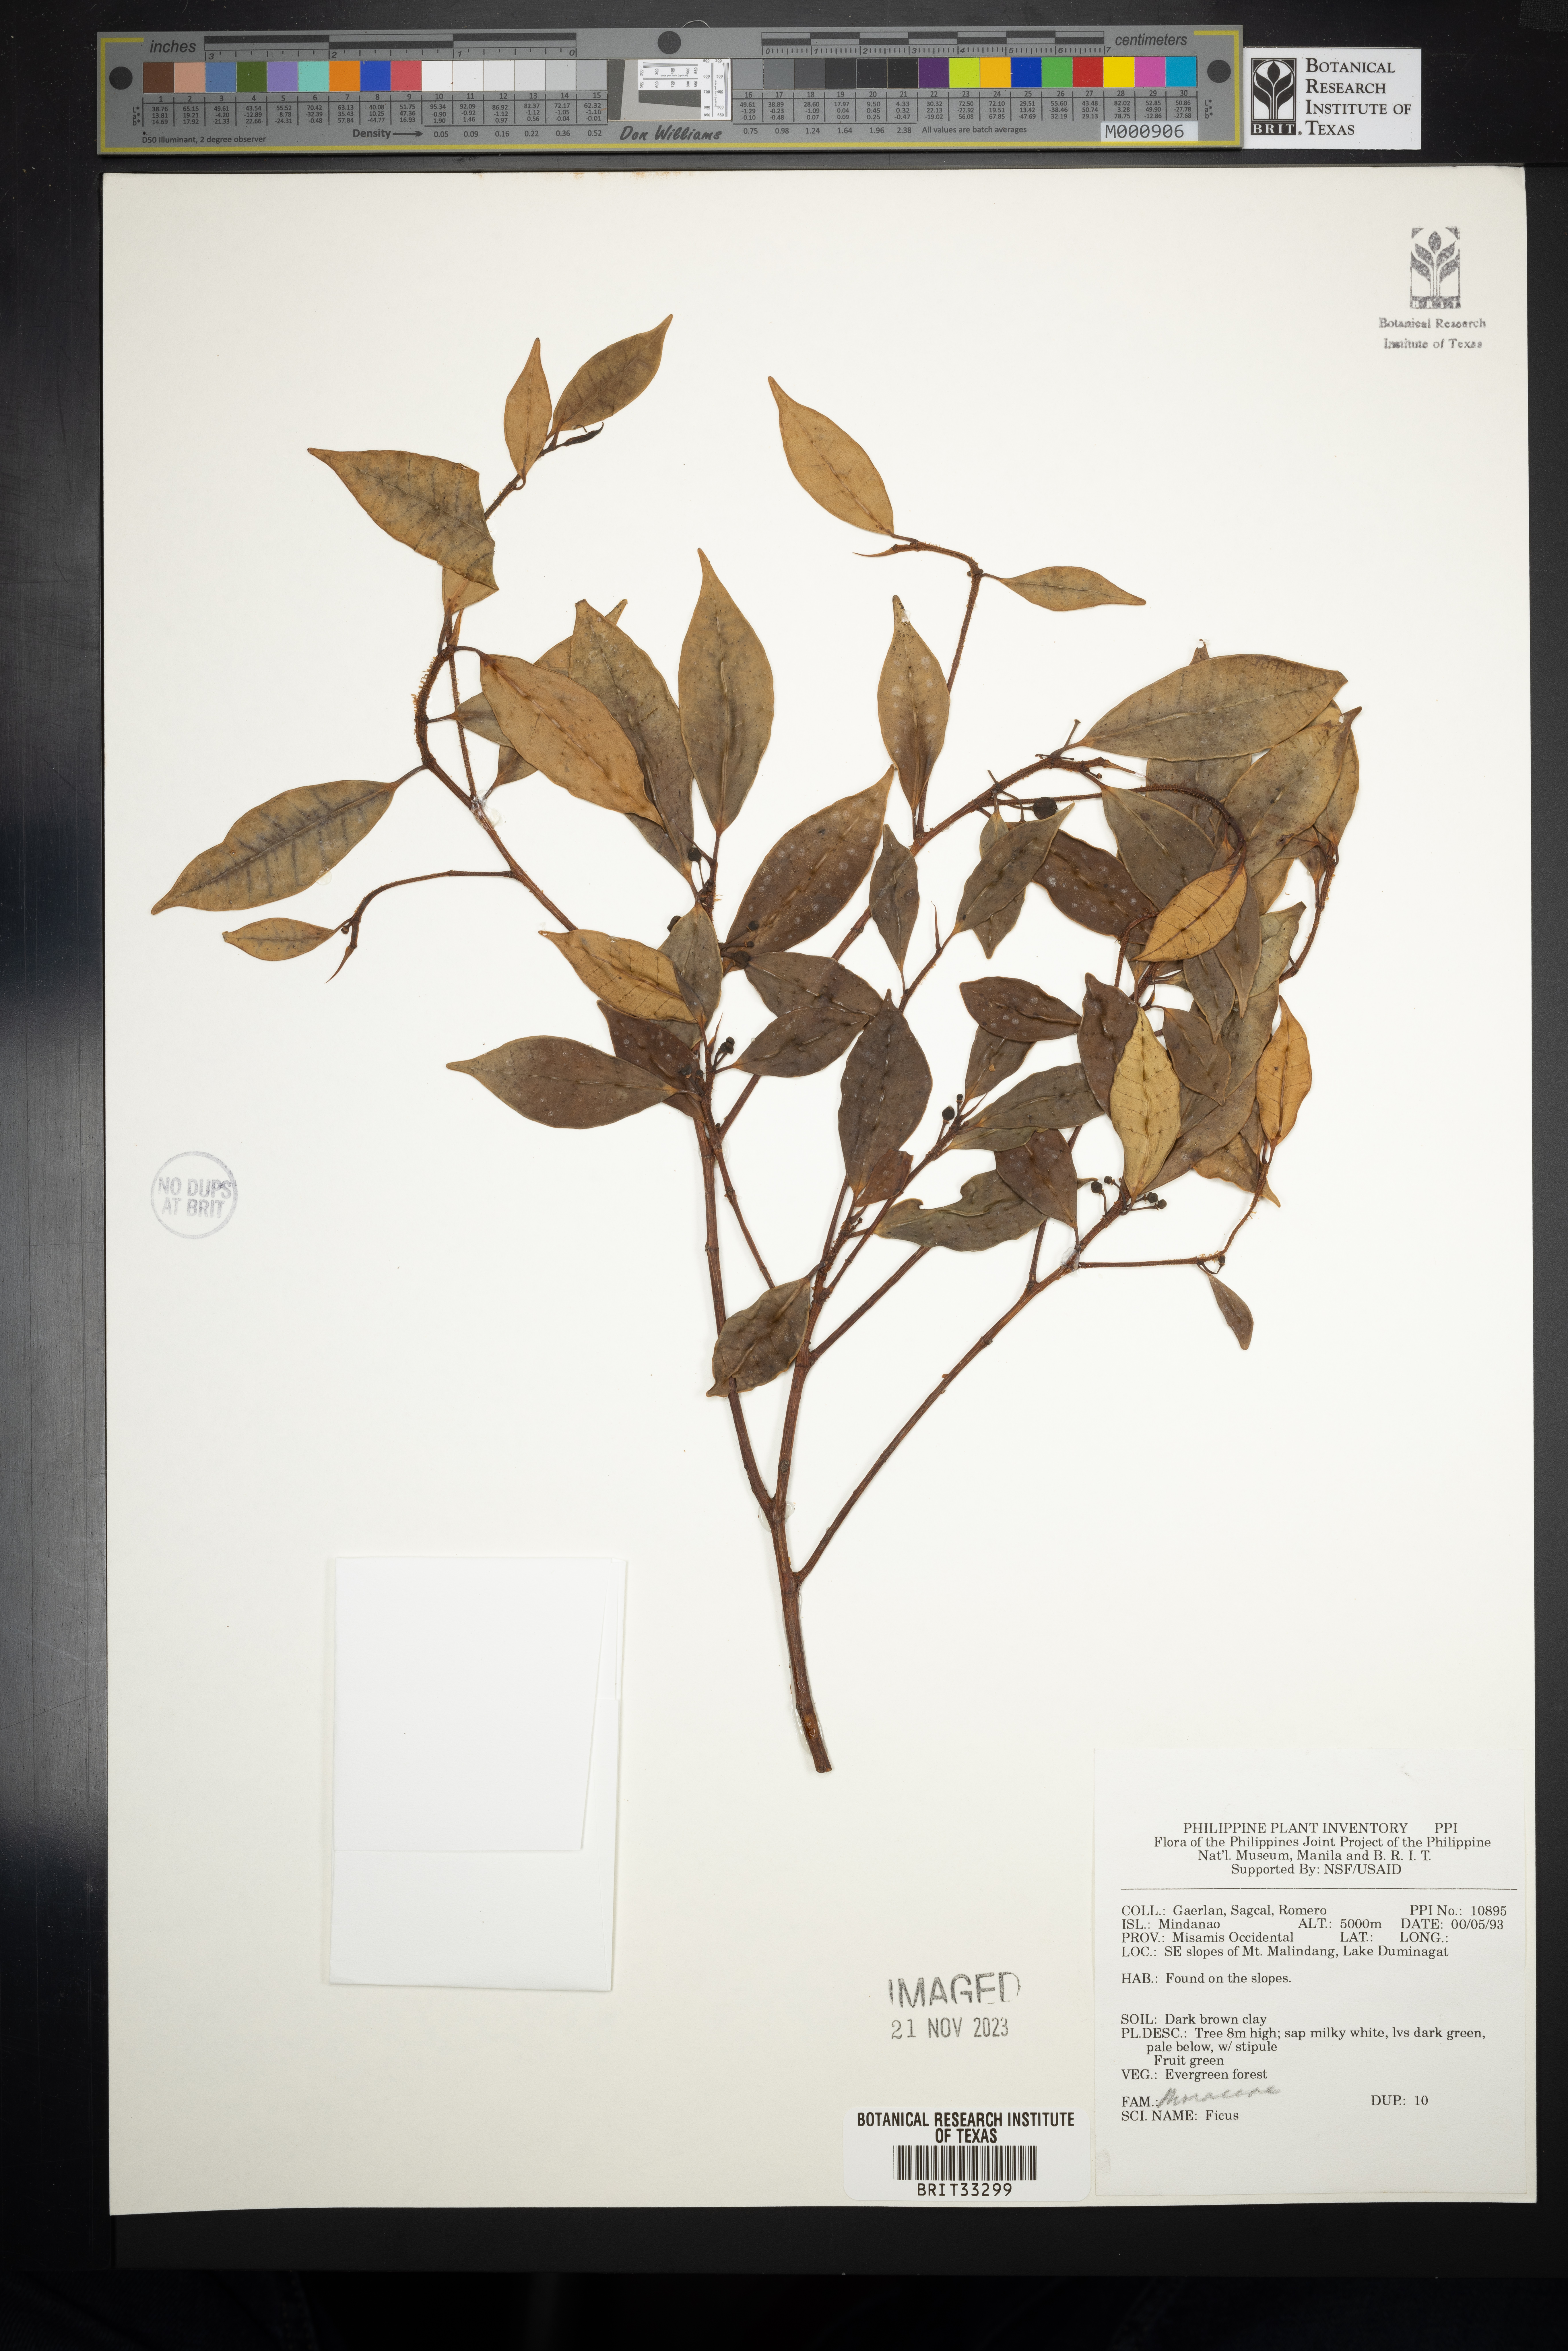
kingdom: Plantae
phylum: Tracheophyta
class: Magnoliopsida
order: Rosales
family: Moraceae
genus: Ficus
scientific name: Ficus
